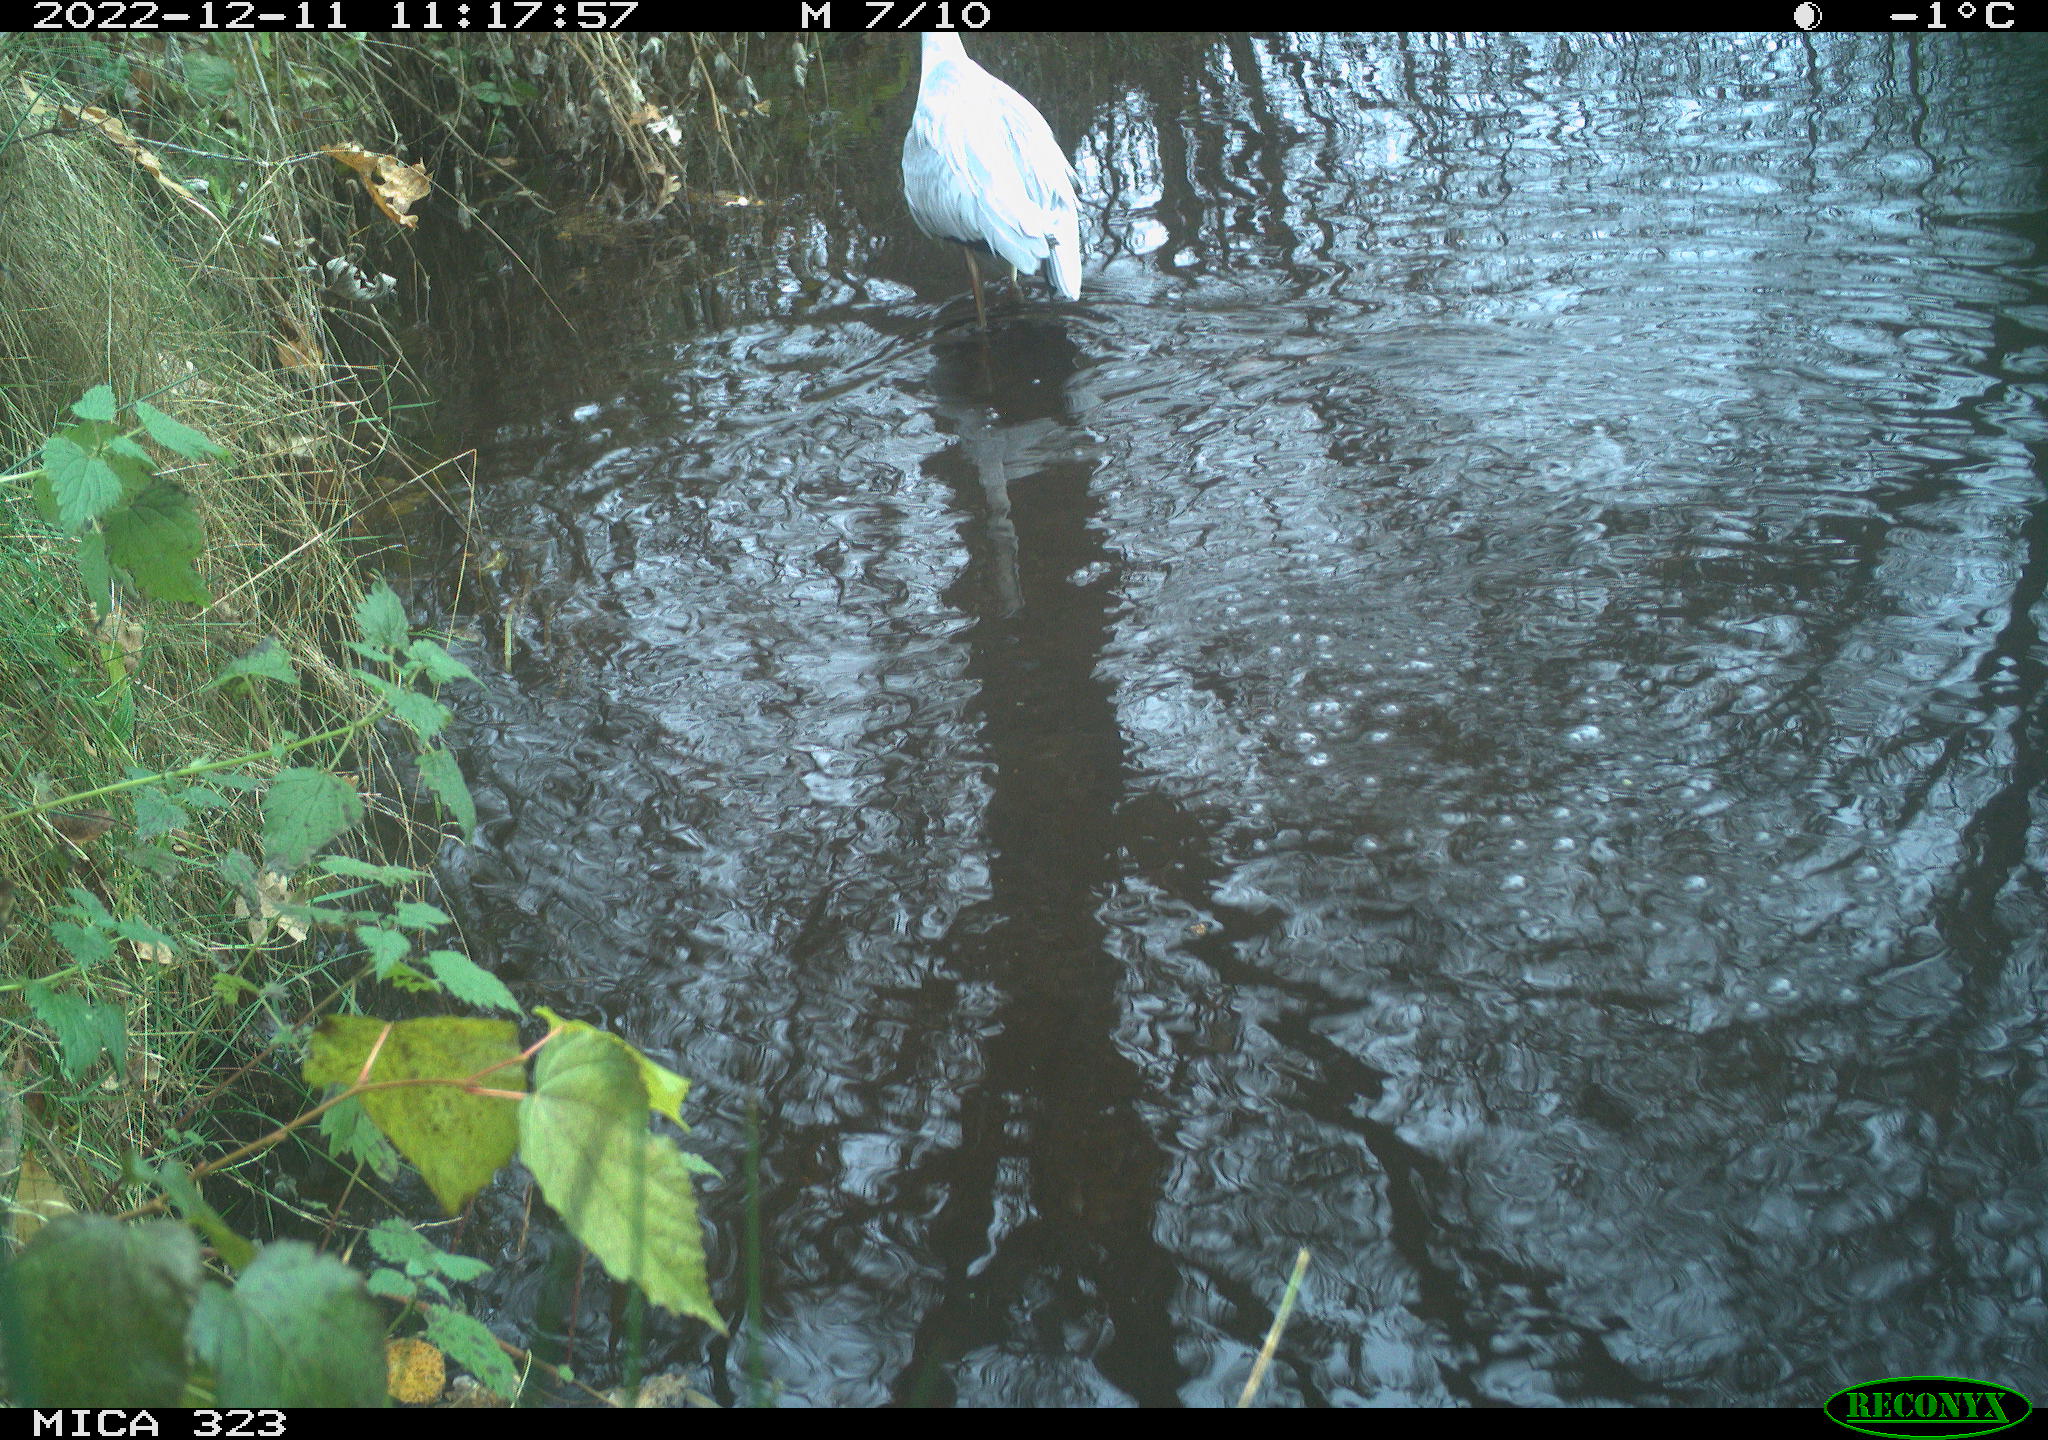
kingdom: Animalia
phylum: Chordata
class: Aves
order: Pelecaniformes
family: Ardeidae
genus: Ardea
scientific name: Ardea cinerea
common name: Grey heron
